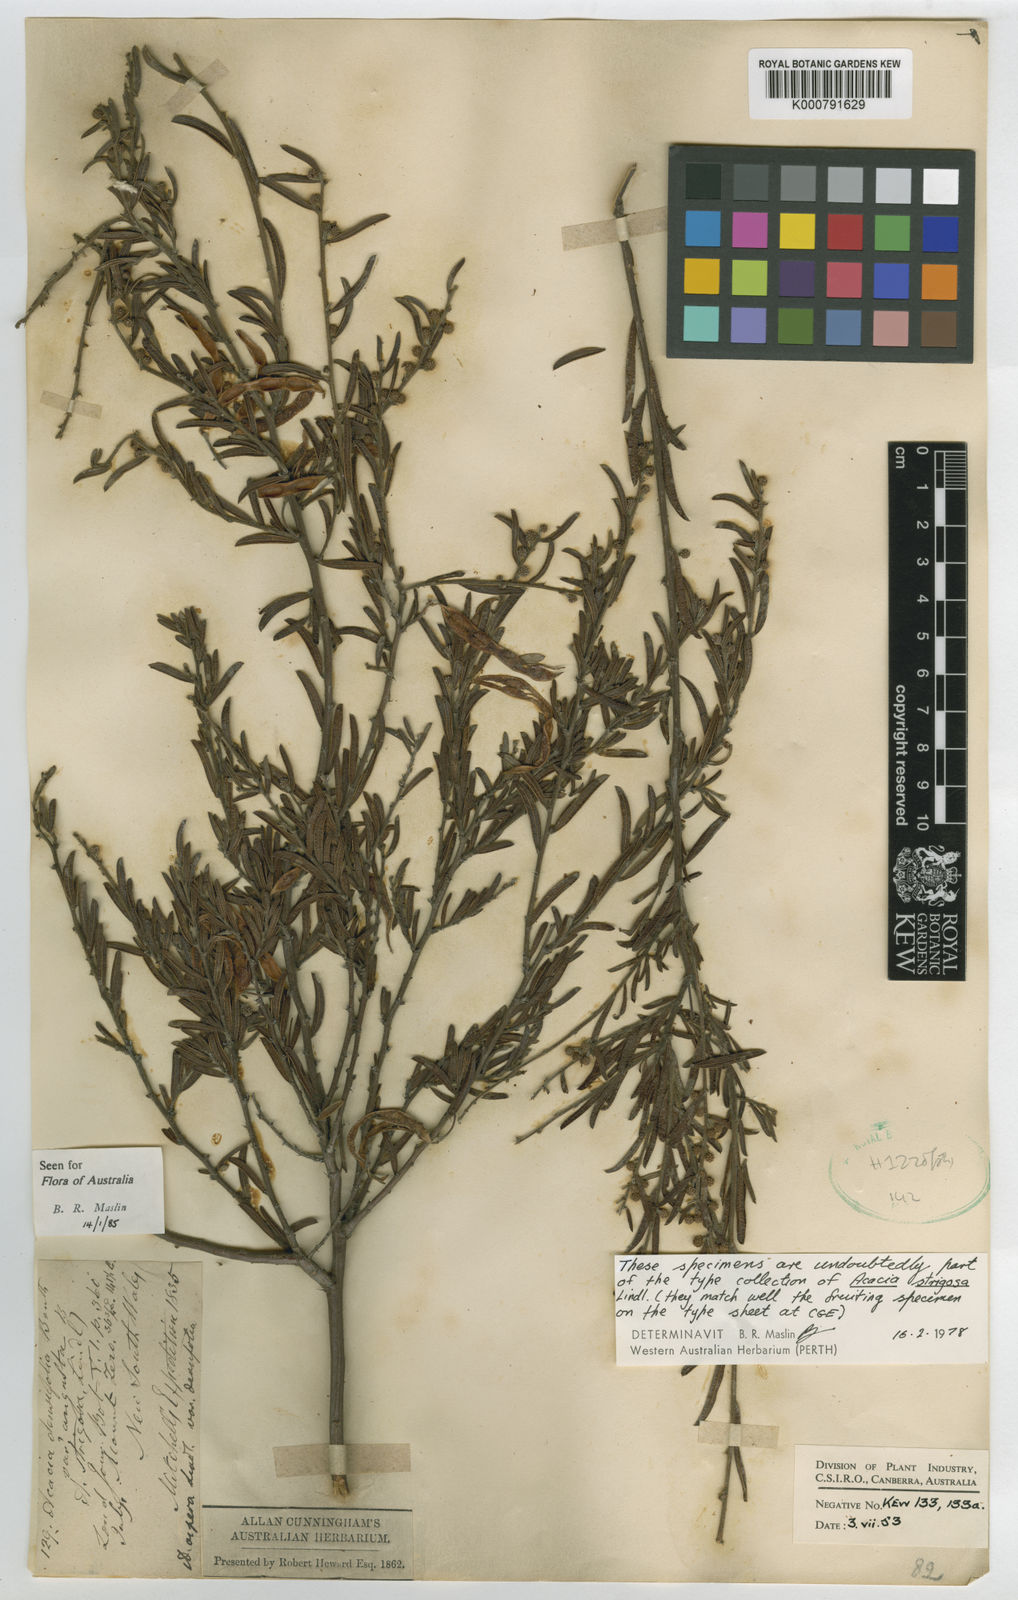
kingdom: Plantae
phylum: Tracheophyta
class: Magnoliopsida
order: Fabales
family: Fabaceae
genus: Acacia
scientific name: Acacia aspera
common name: Rough wattle
